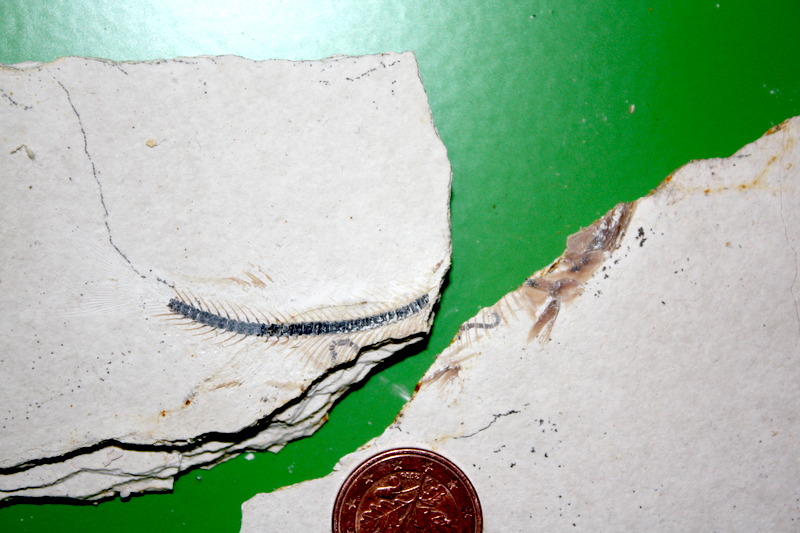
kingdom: Animalia
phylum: Chordata
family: Ascalaboidae
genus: Ebertichthys
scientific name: Ebertichthys ettlingensis
